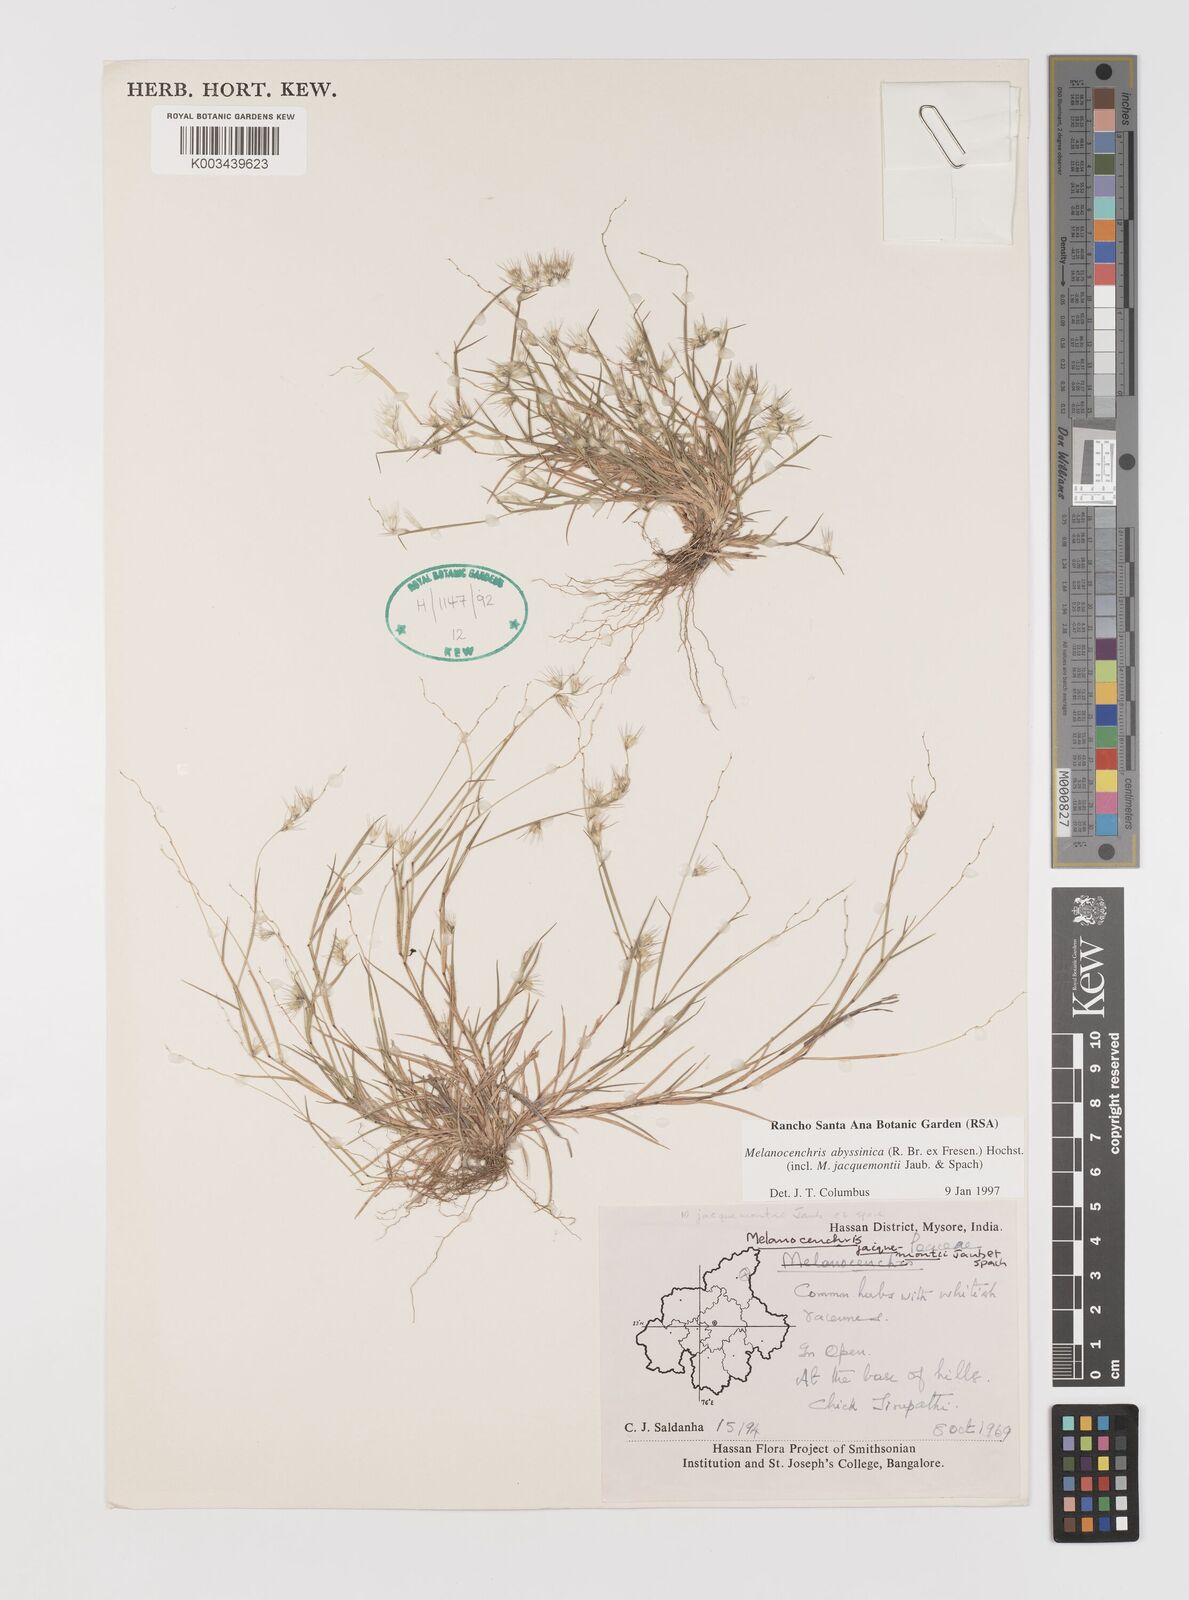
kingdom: Plantae
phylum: Tracheophyta
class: Liliopsida
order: Poales
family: Poaceae
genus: Melanocenchris
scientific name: Melanocenchris abyssinica
